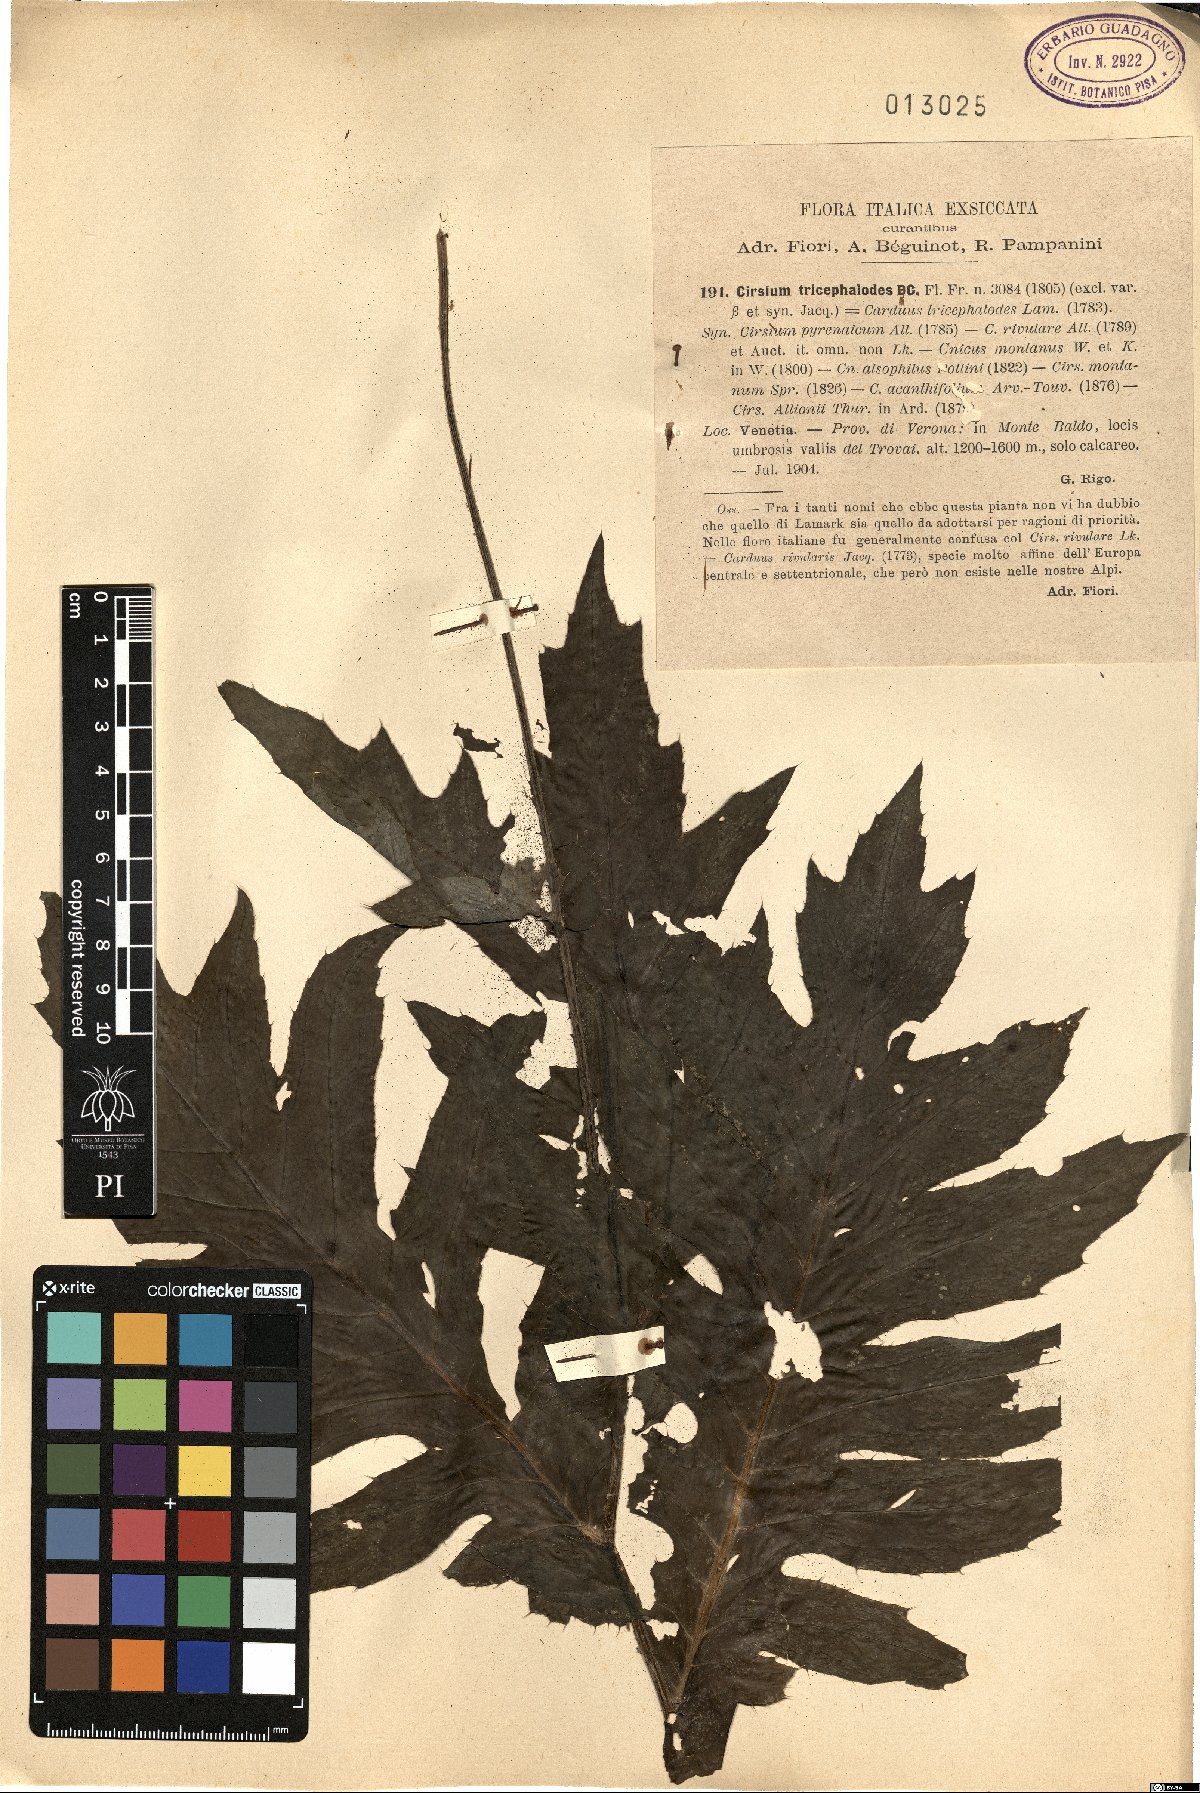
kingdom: Plantae
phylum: Tracheophyta
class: Magnoliopsida
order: Asterales
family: Asteraceae
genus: Cirsium
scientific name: Cirsium rivulare
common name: Brook thistle
